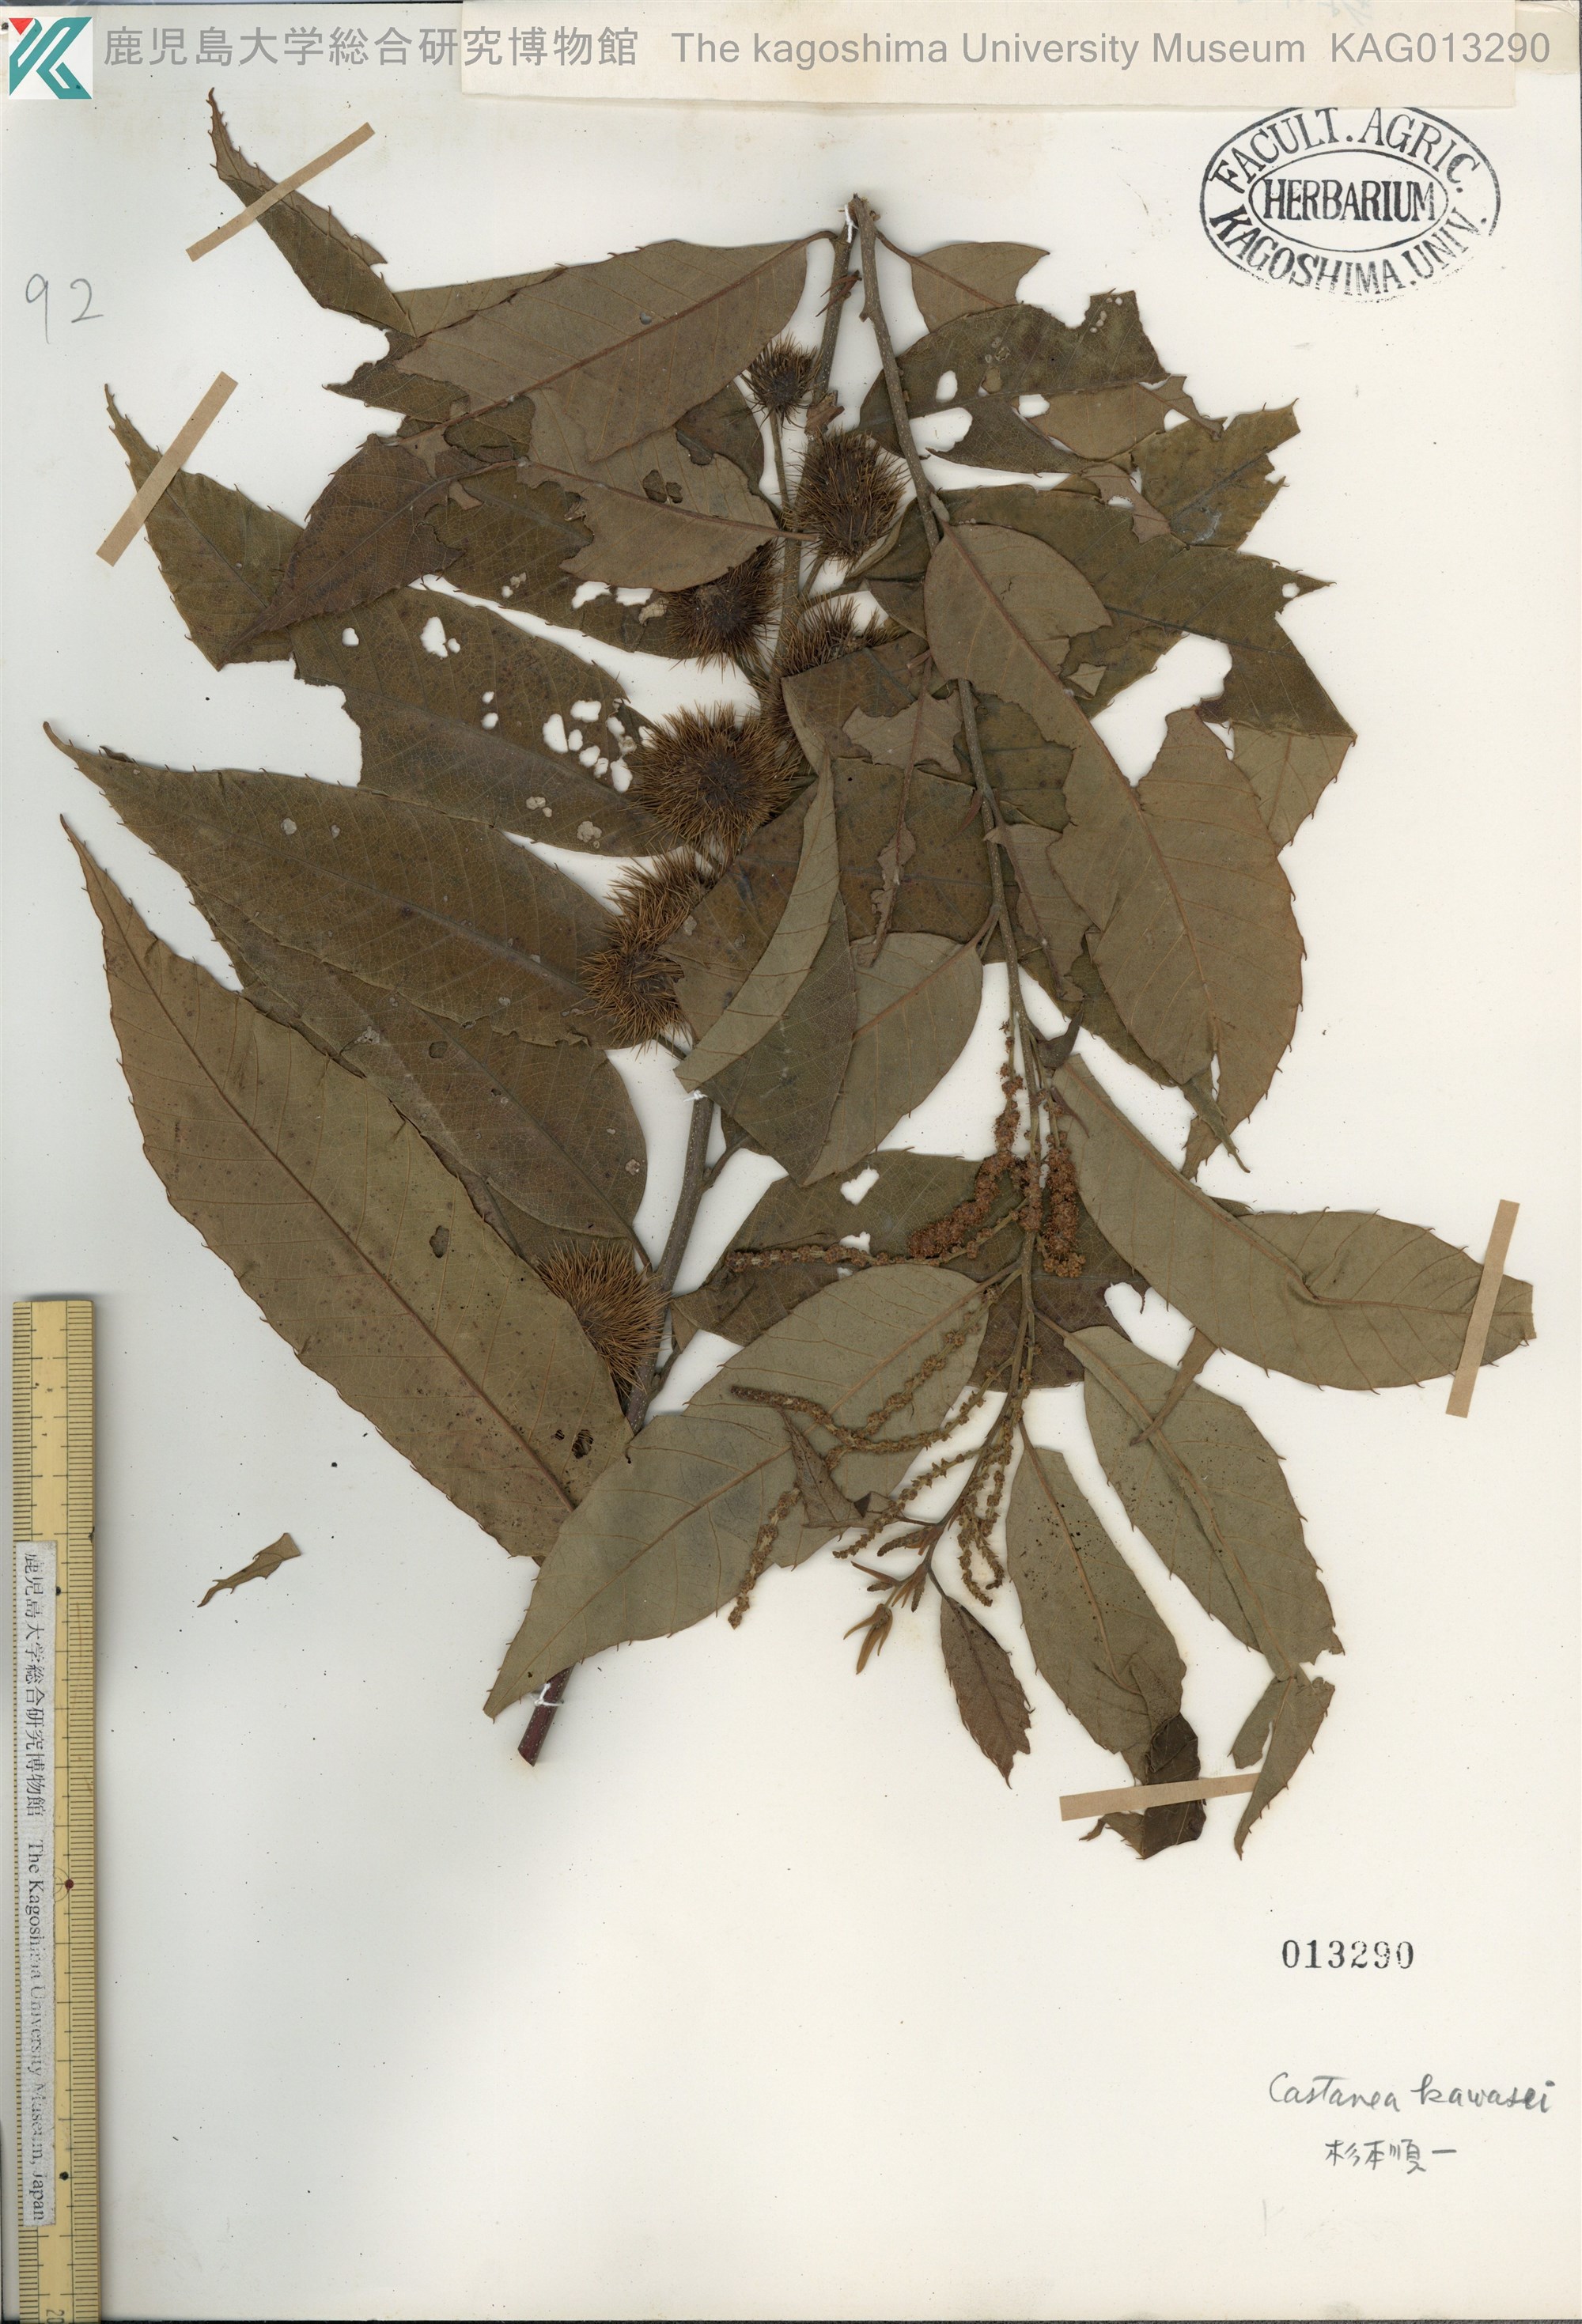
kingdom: Plantae
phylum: Tracheophyta
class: Magnoliopsida
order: Fagales
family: Fagaceae
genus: Castanea
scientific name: Castanea
